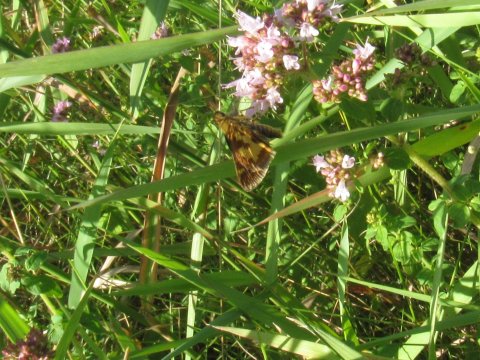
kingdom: Animalia
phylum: Arthropoda
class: Insecta
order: Lepidoptera
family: Hesperiidae
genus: Polites
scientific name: Polites coras
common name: Peck's Skipper
